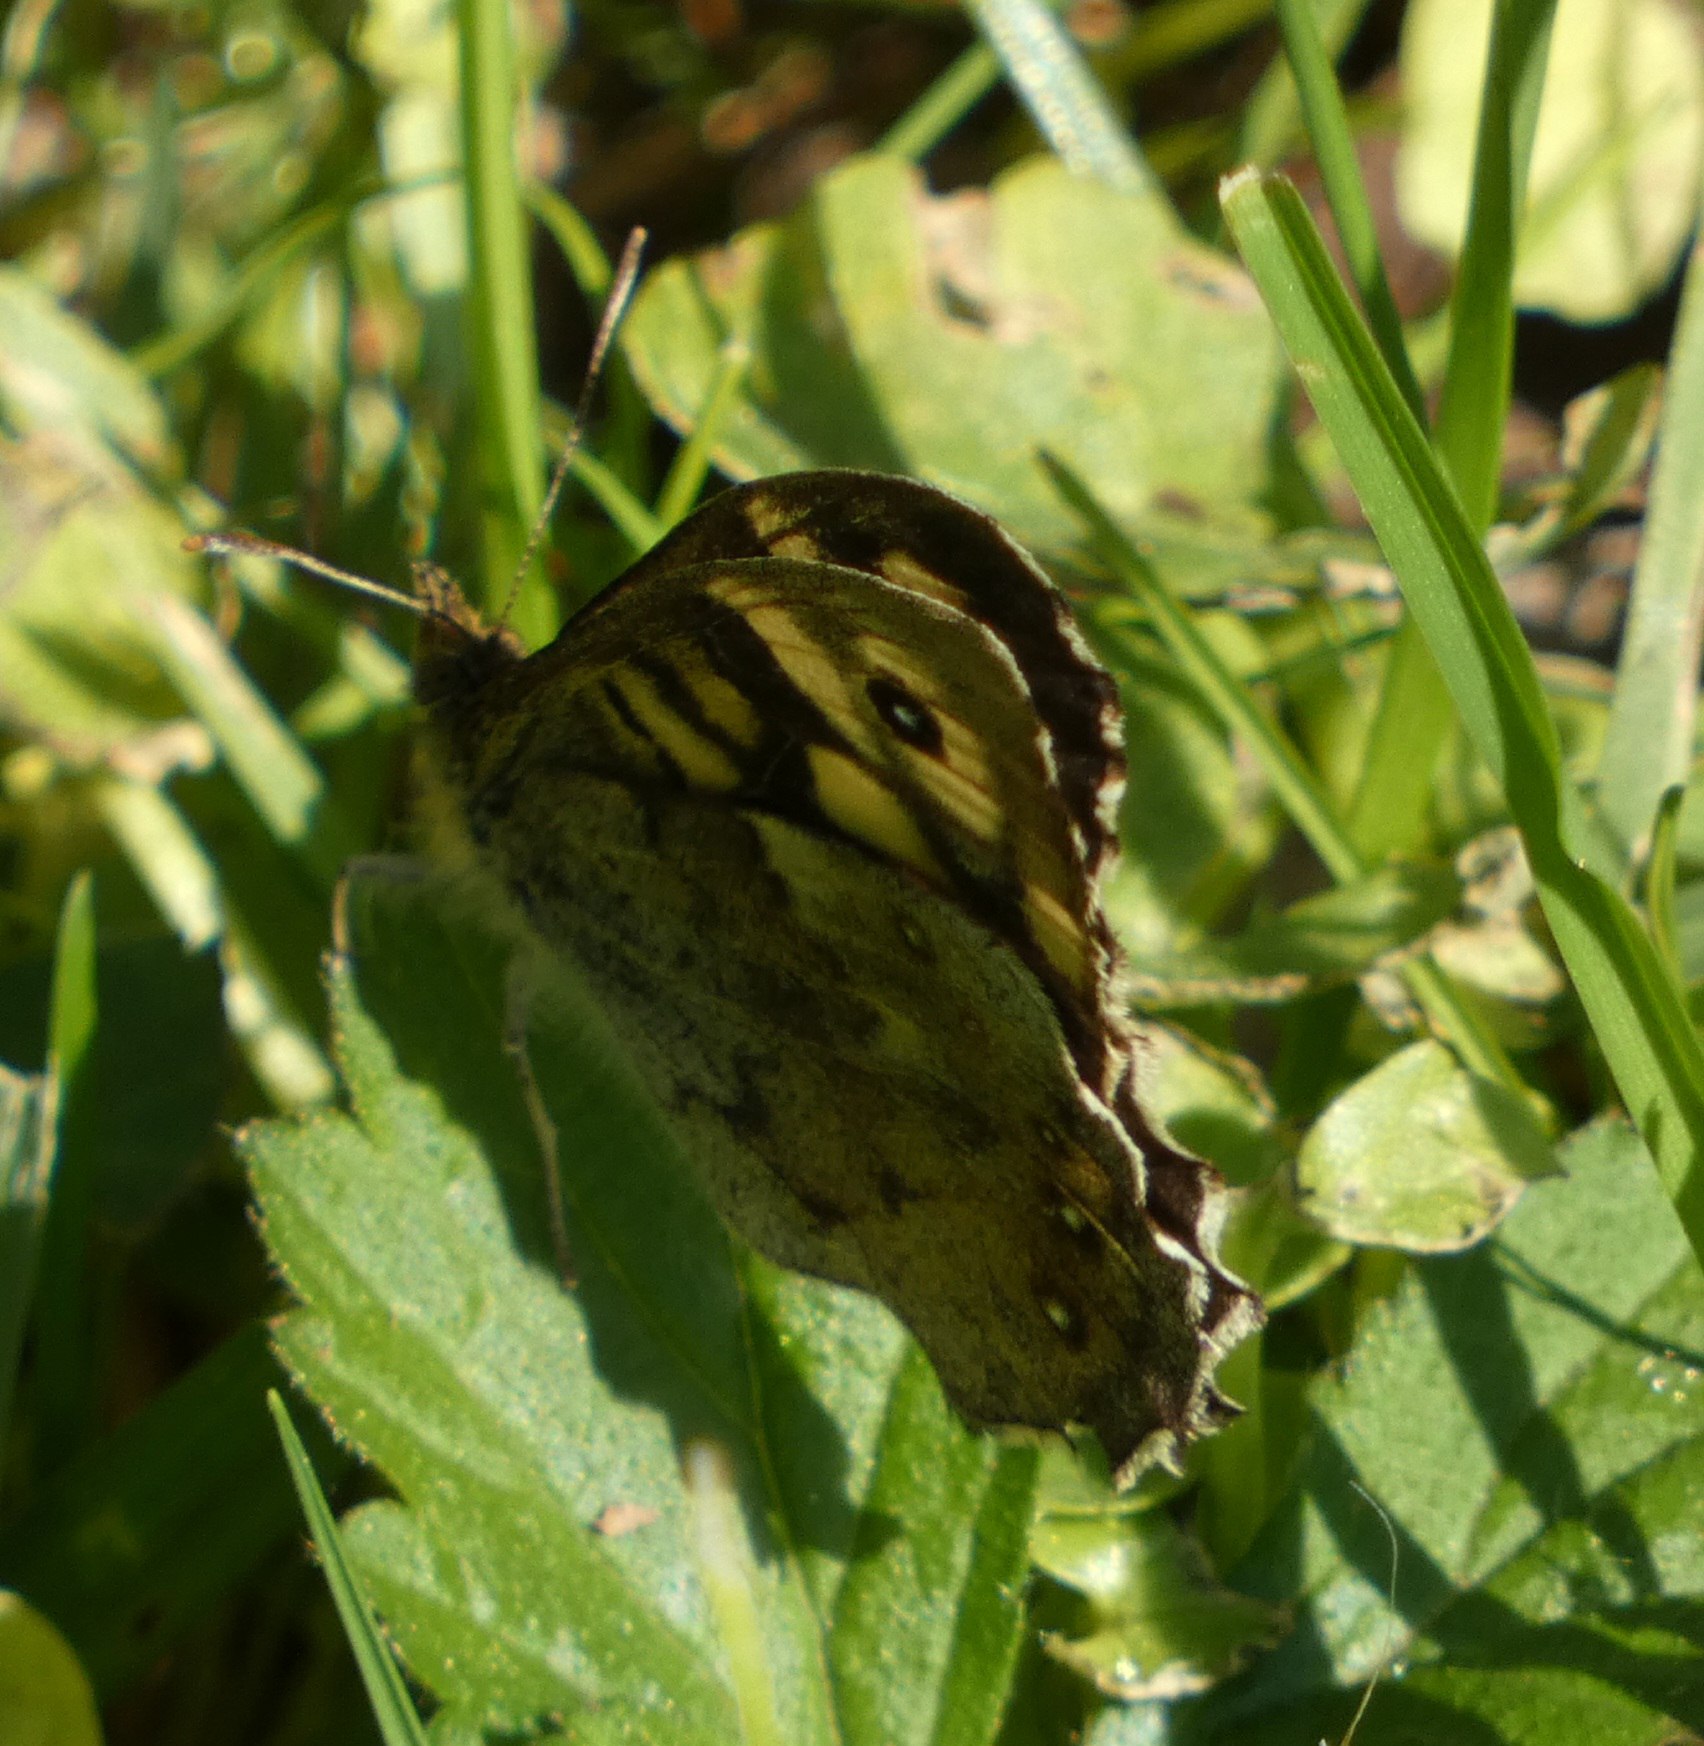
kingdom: Animalia
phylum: Arthropoda
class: Insecta
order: Lepidoptera
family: Nymphalidae
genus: Pararge
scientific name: Pararge aegeria
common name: Skovrandøje
